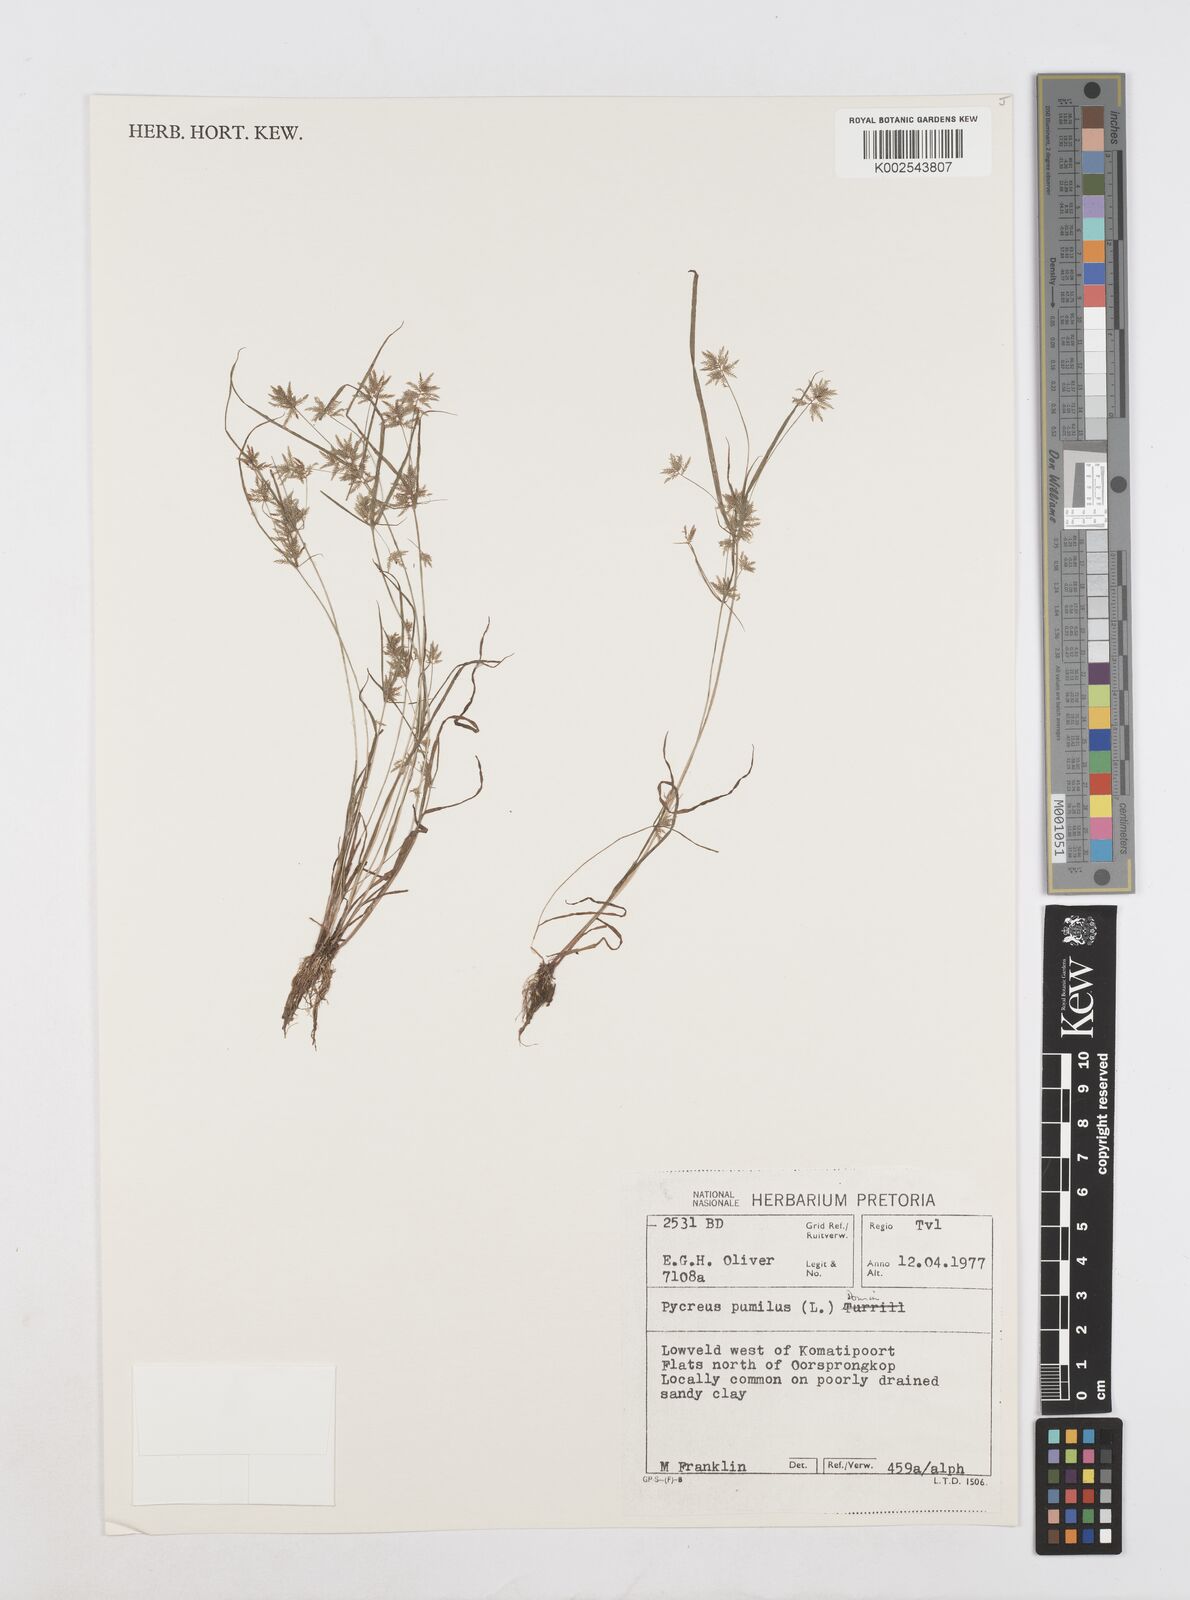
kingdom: Plantae
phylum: Tracheophyta
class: Liliopsida
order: Poales
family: Cyperaceae
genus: Cyperus
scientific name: Cyperus pumilus
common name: Low flatsedge
